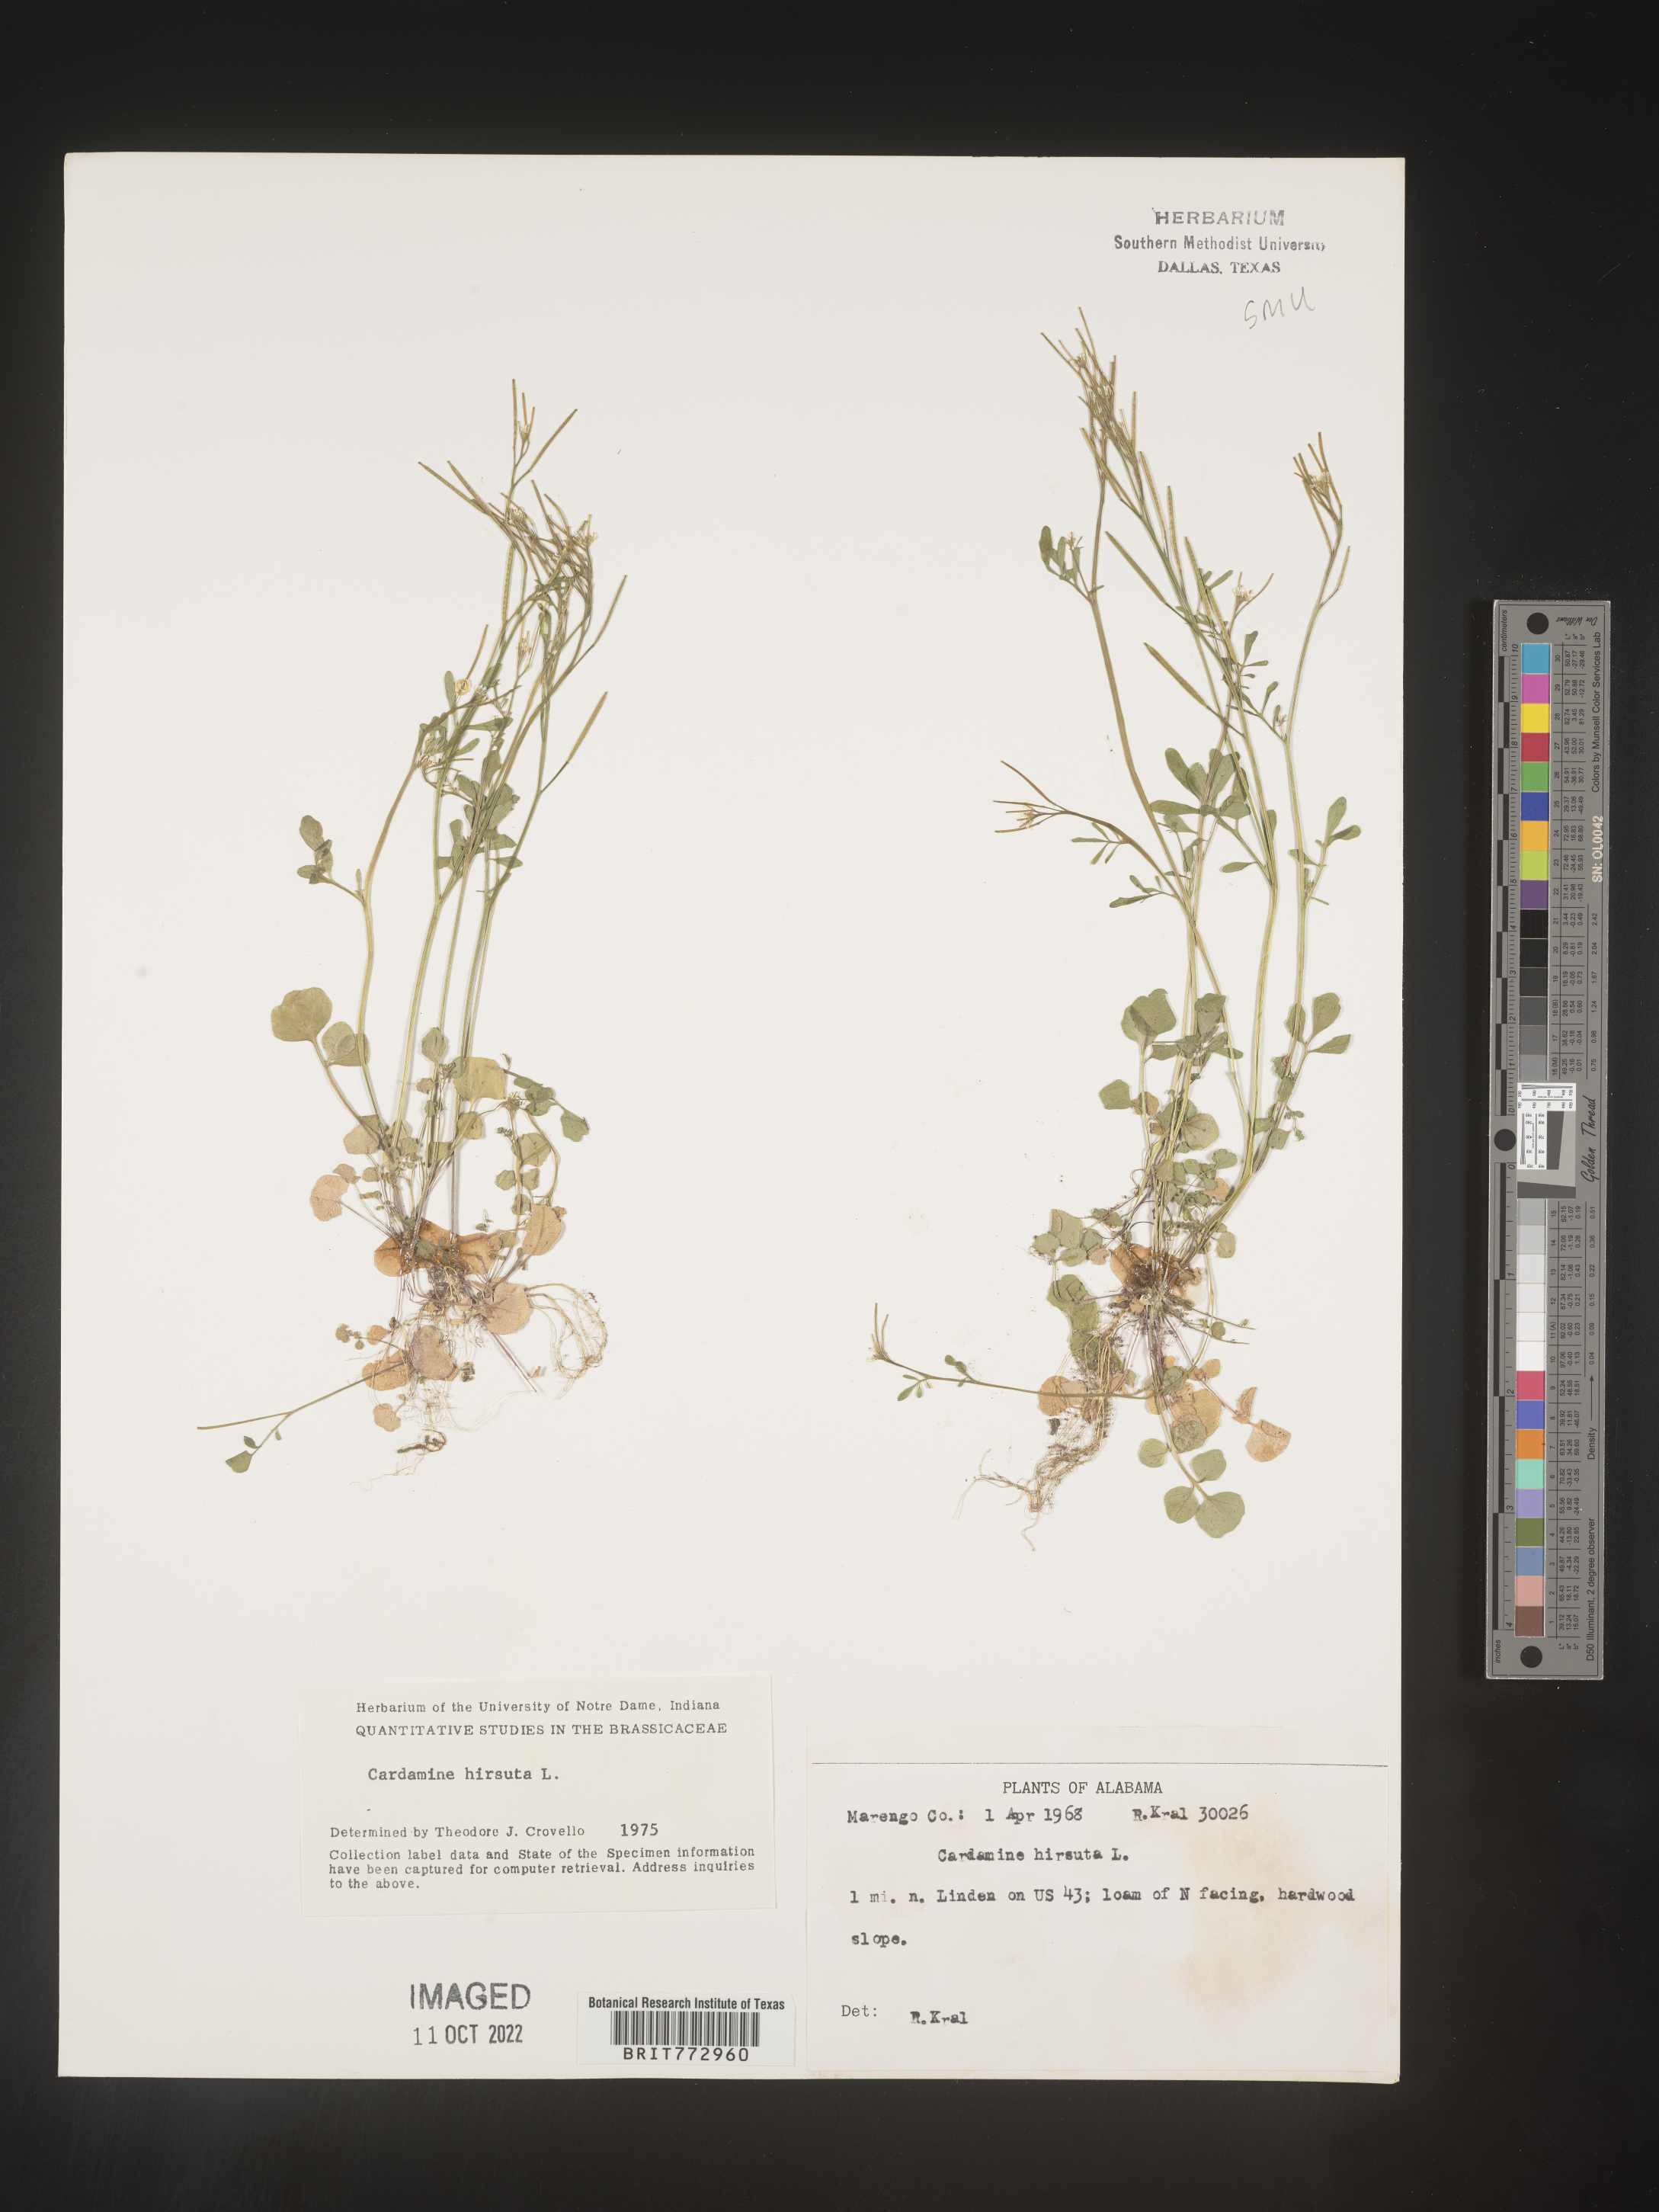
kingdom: Plantae
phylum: Tracheophyta
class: Magnoliopsida
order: Brassicales
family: Brassicaceae
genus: Cardamine
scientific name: Cardamine hirsuta
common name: Hairy bittercress
